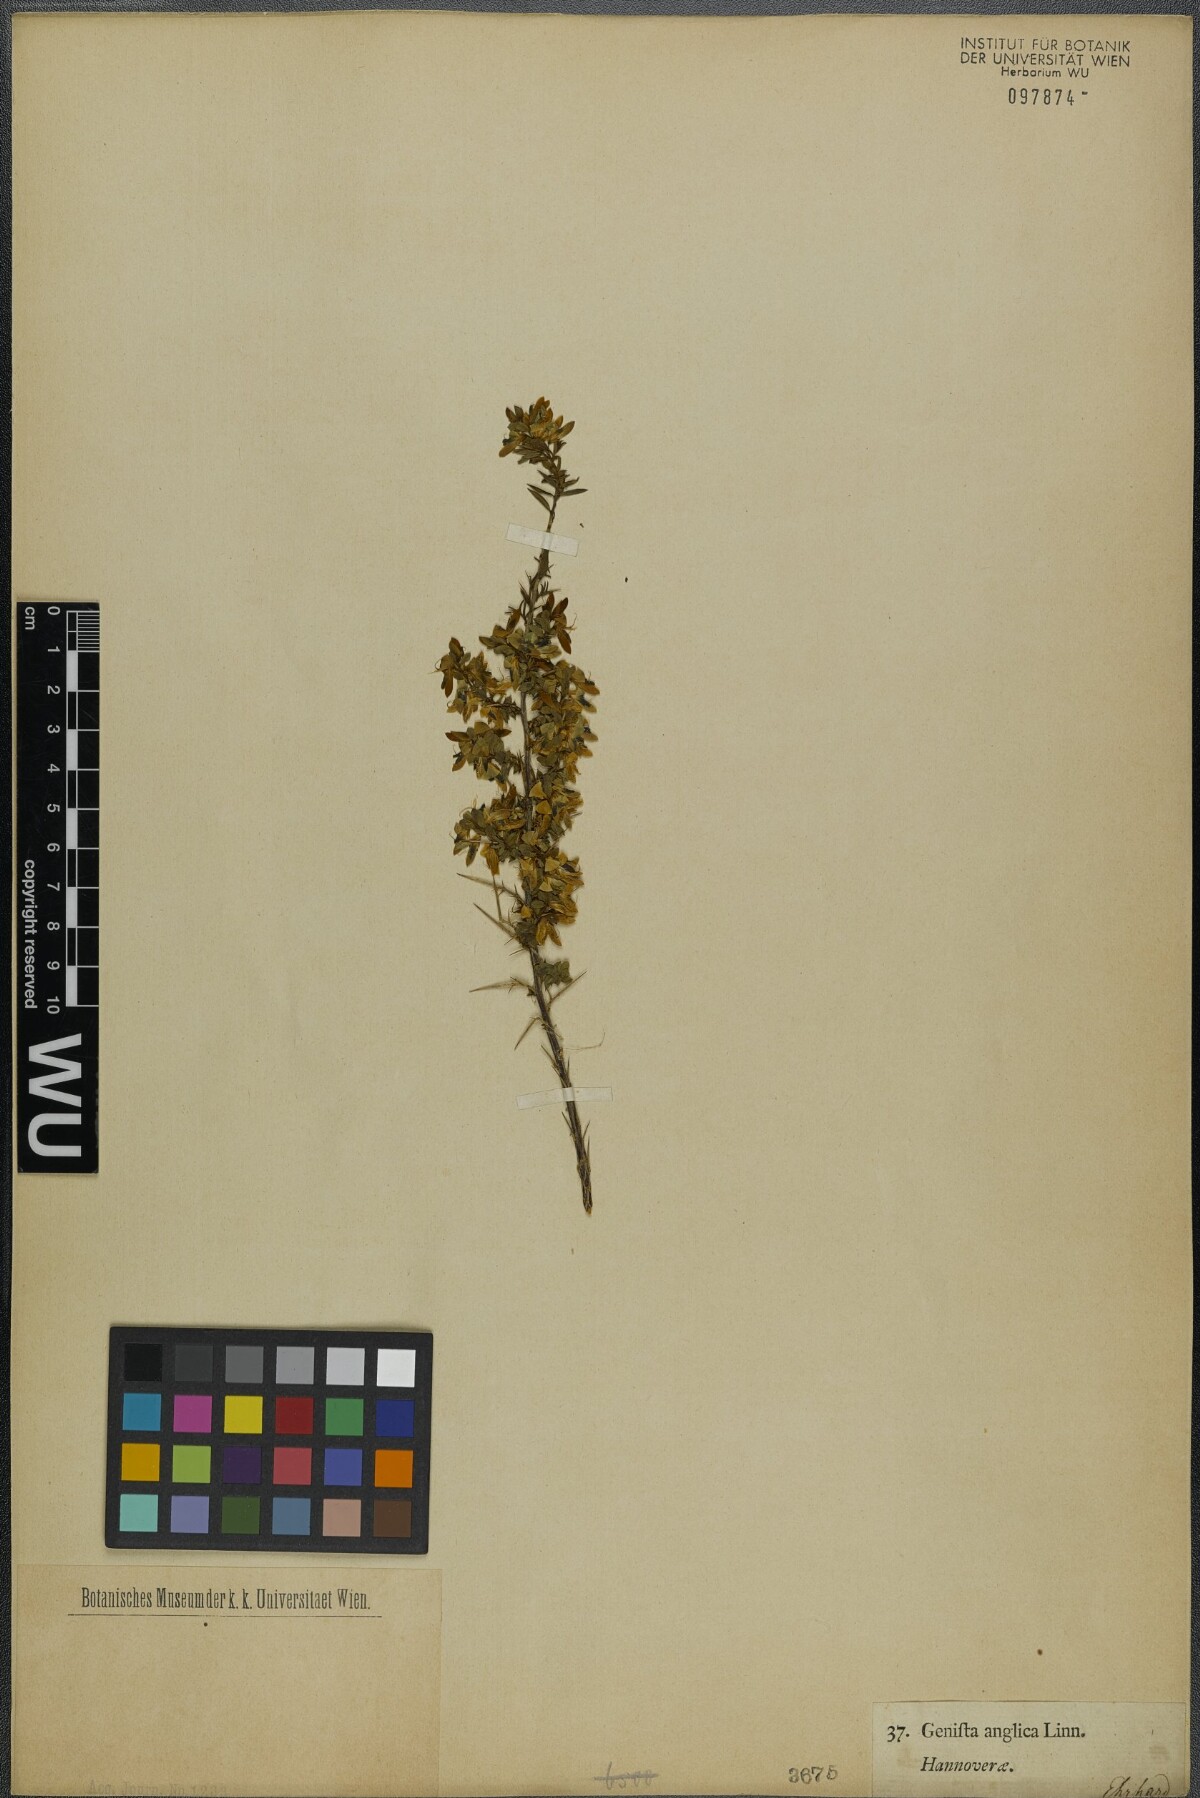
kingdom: Plantae
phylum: Tracheophyta
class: Magnoliopsida
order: Fabales
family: Fabaceae
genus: Genista
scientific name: Genista anglica
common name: Petty whin
